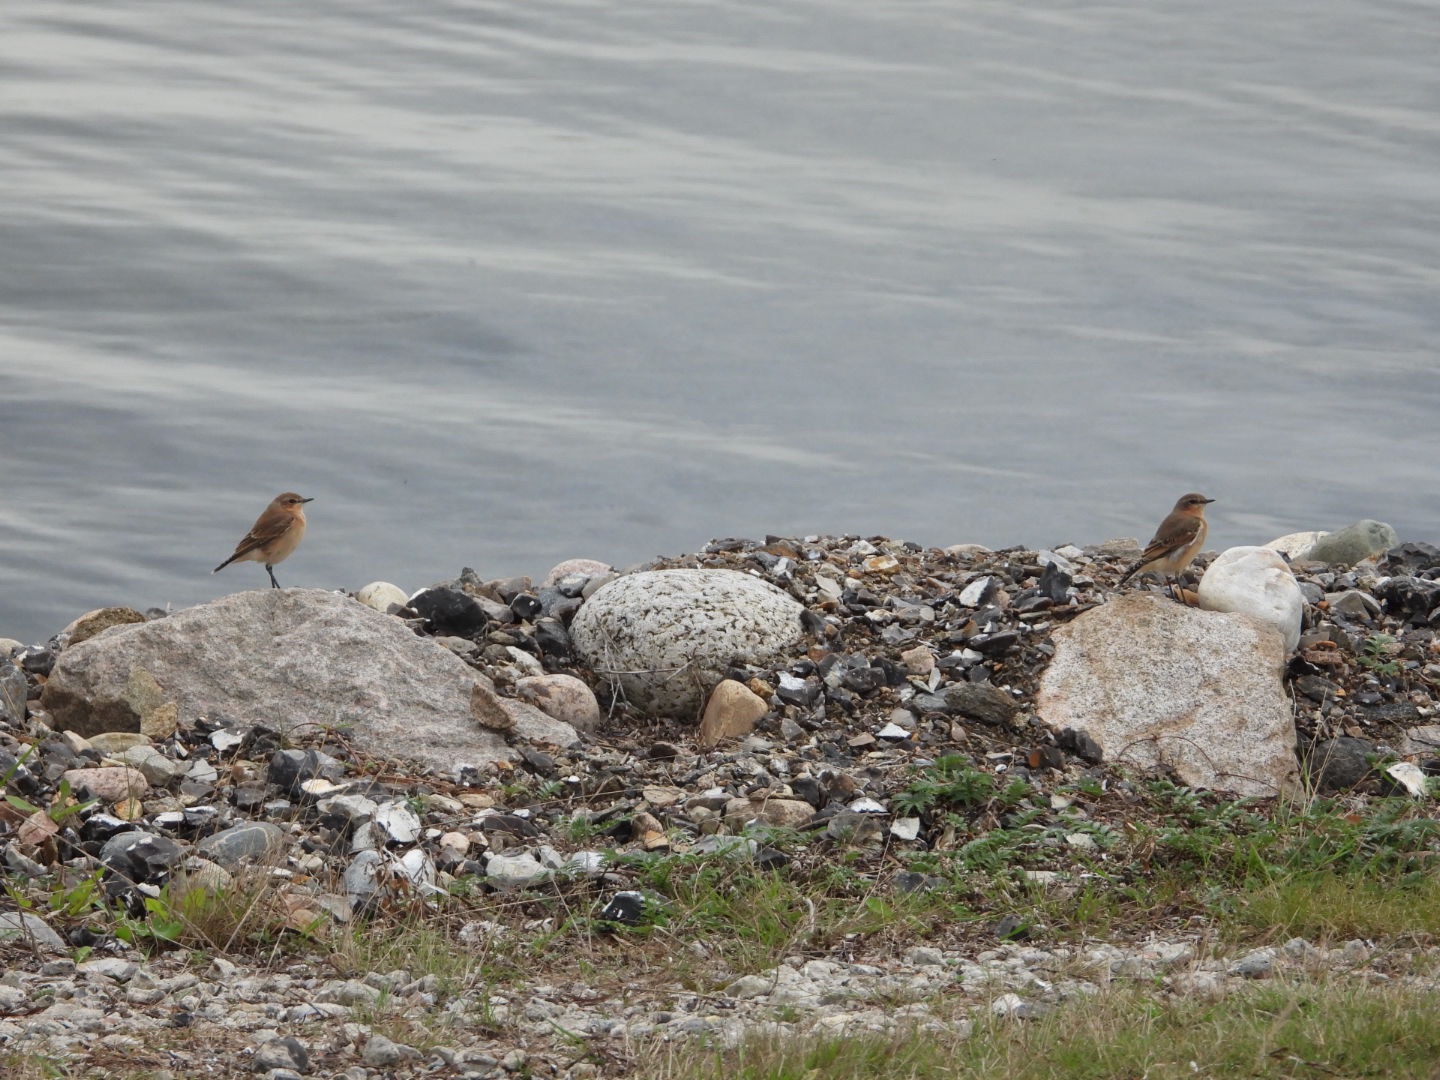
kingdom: Animalia
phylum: Chordata
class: Aves
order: Passeriformes
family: Muscicapidae
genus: Oenanthe
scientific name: Oenanthe oenanthe
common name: Stenpikker
